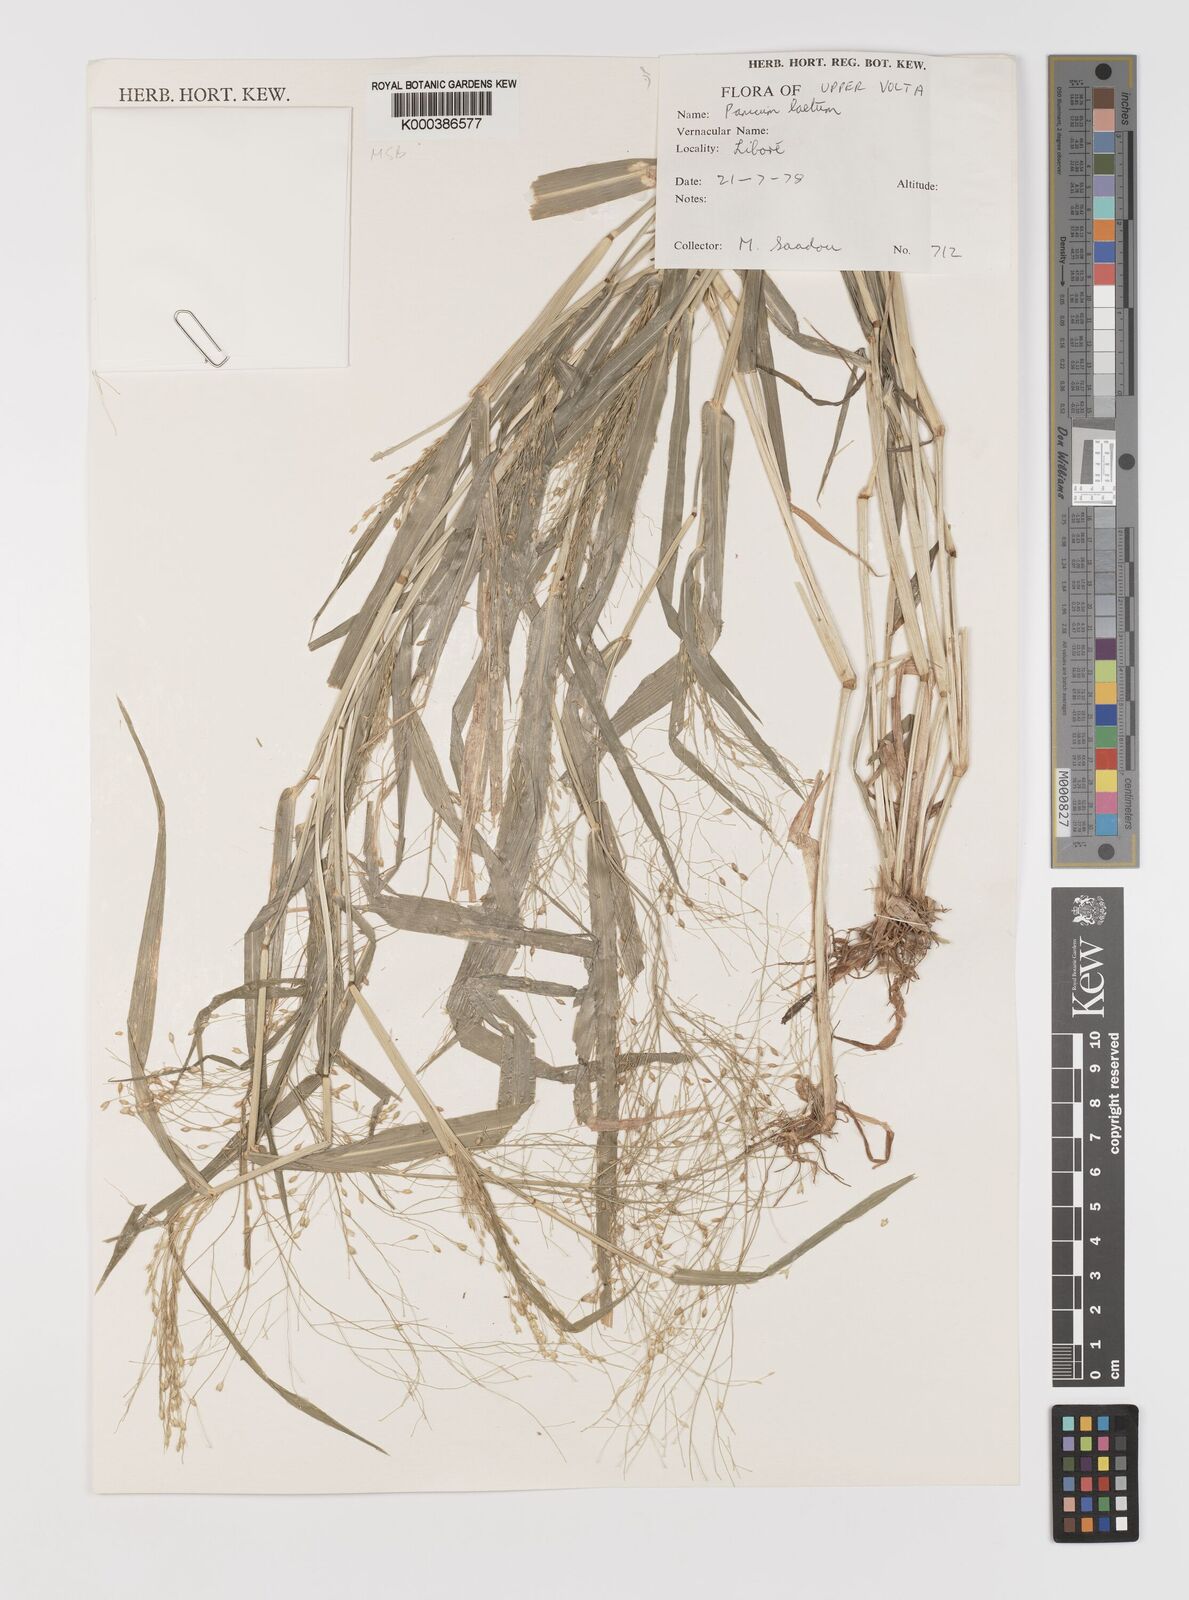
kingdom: Plantae
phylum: Tracheophyta
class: Liliopsida
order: Poales
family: Poaceae
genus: Panicum
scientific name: Panicum laetum
